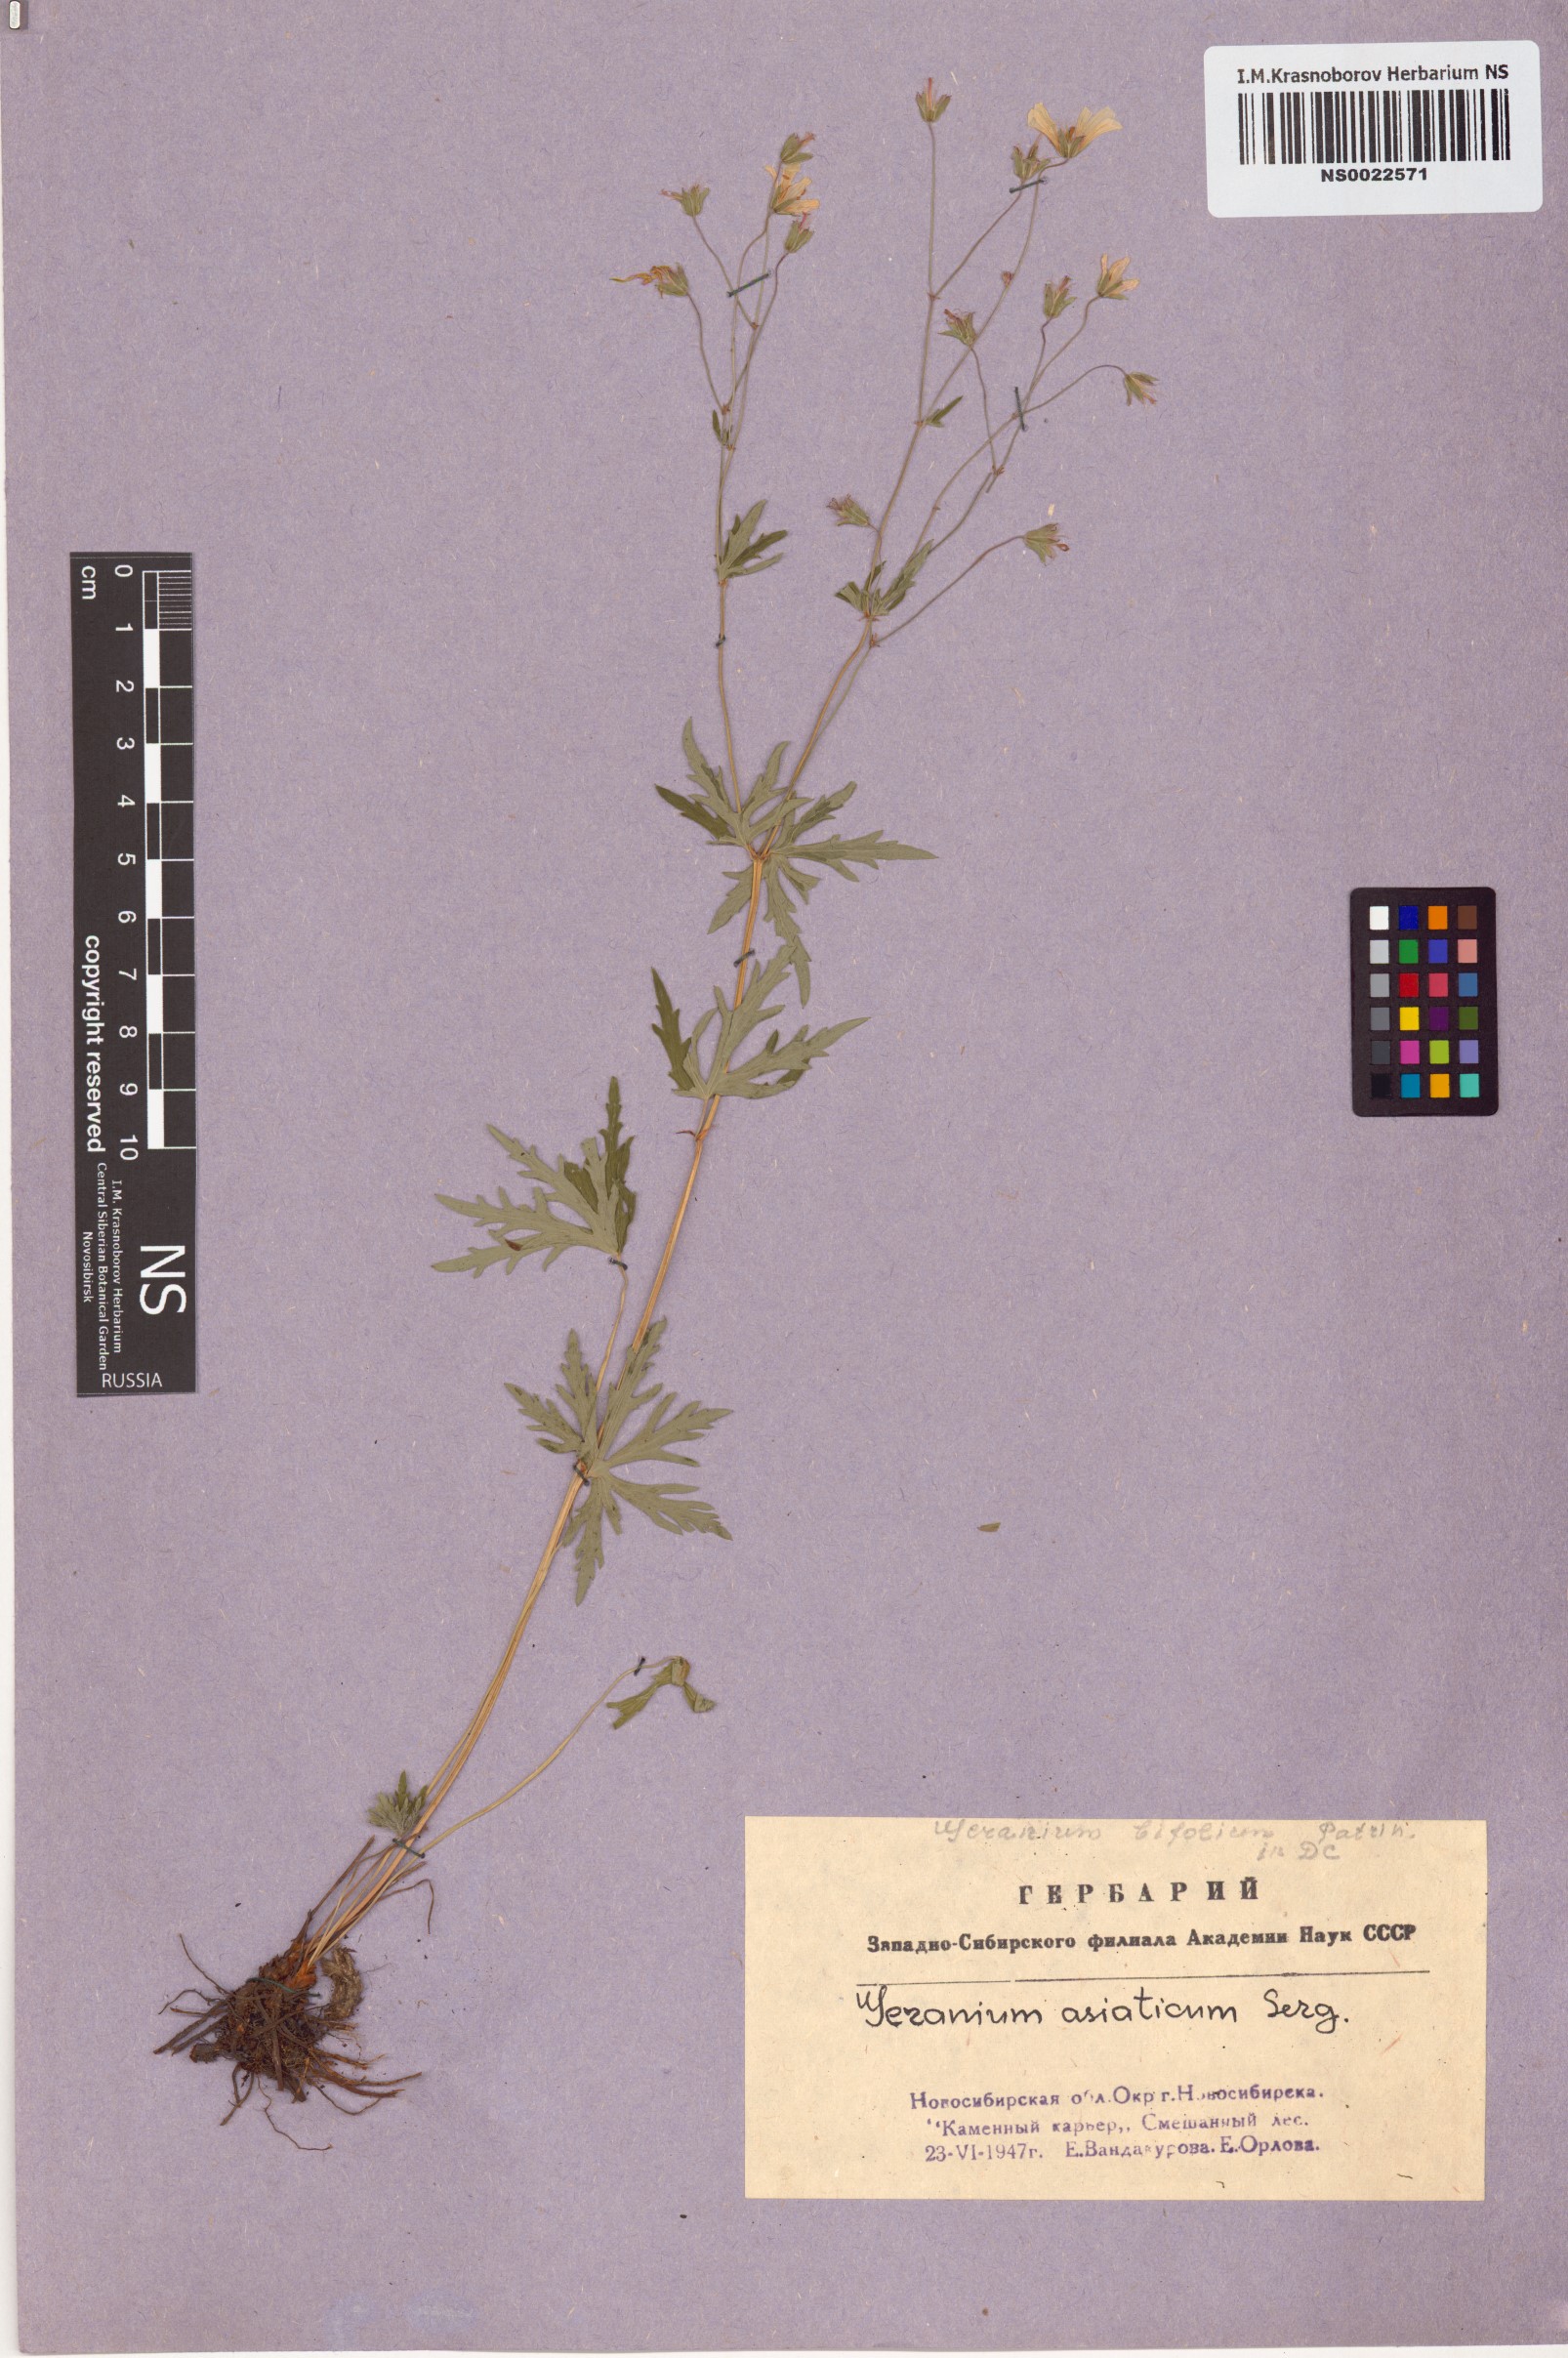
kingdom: Plantae
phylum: Tracheophyta
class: Magnoliopsida
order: Geraniales
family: Geraniaceae
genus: Geranium
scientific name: Geranium pseudosibiricum
